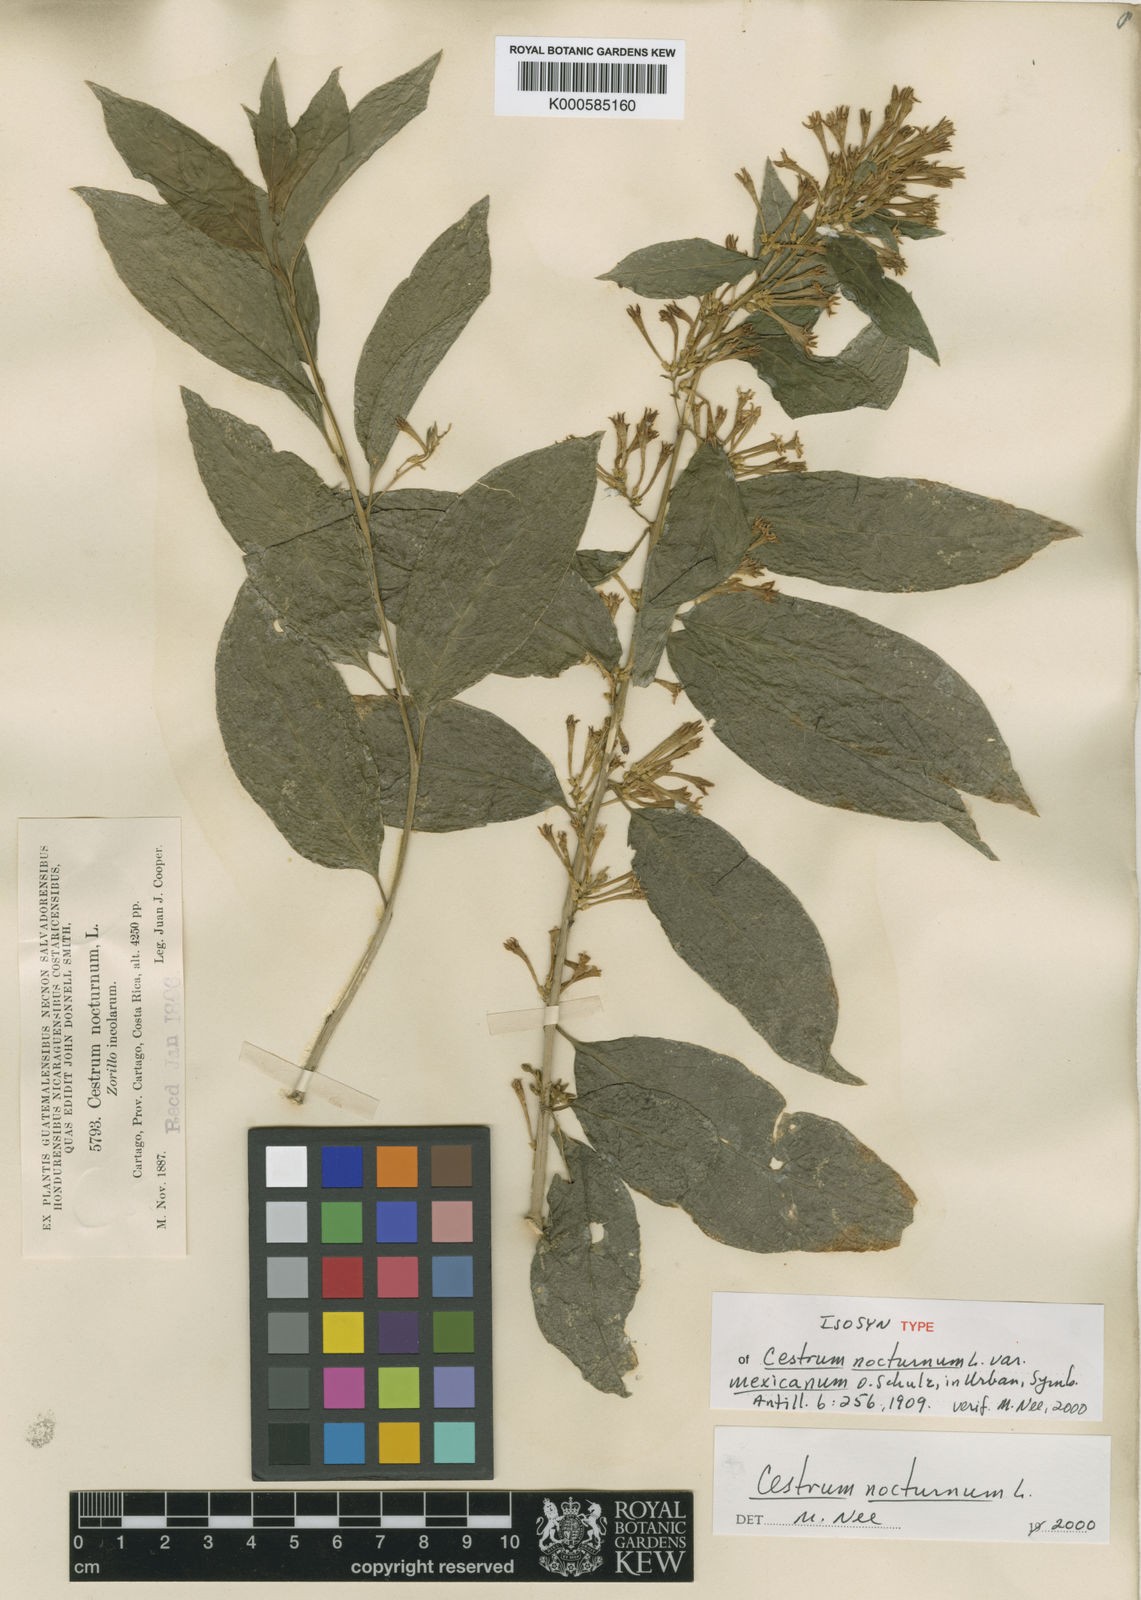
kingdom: Plantae
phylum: Tracheophyta
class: Magnoliopsida
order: Solanales
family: Solanaceae
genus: Cestrum
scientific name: Cestrum nocturnum
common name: Night jessamine
